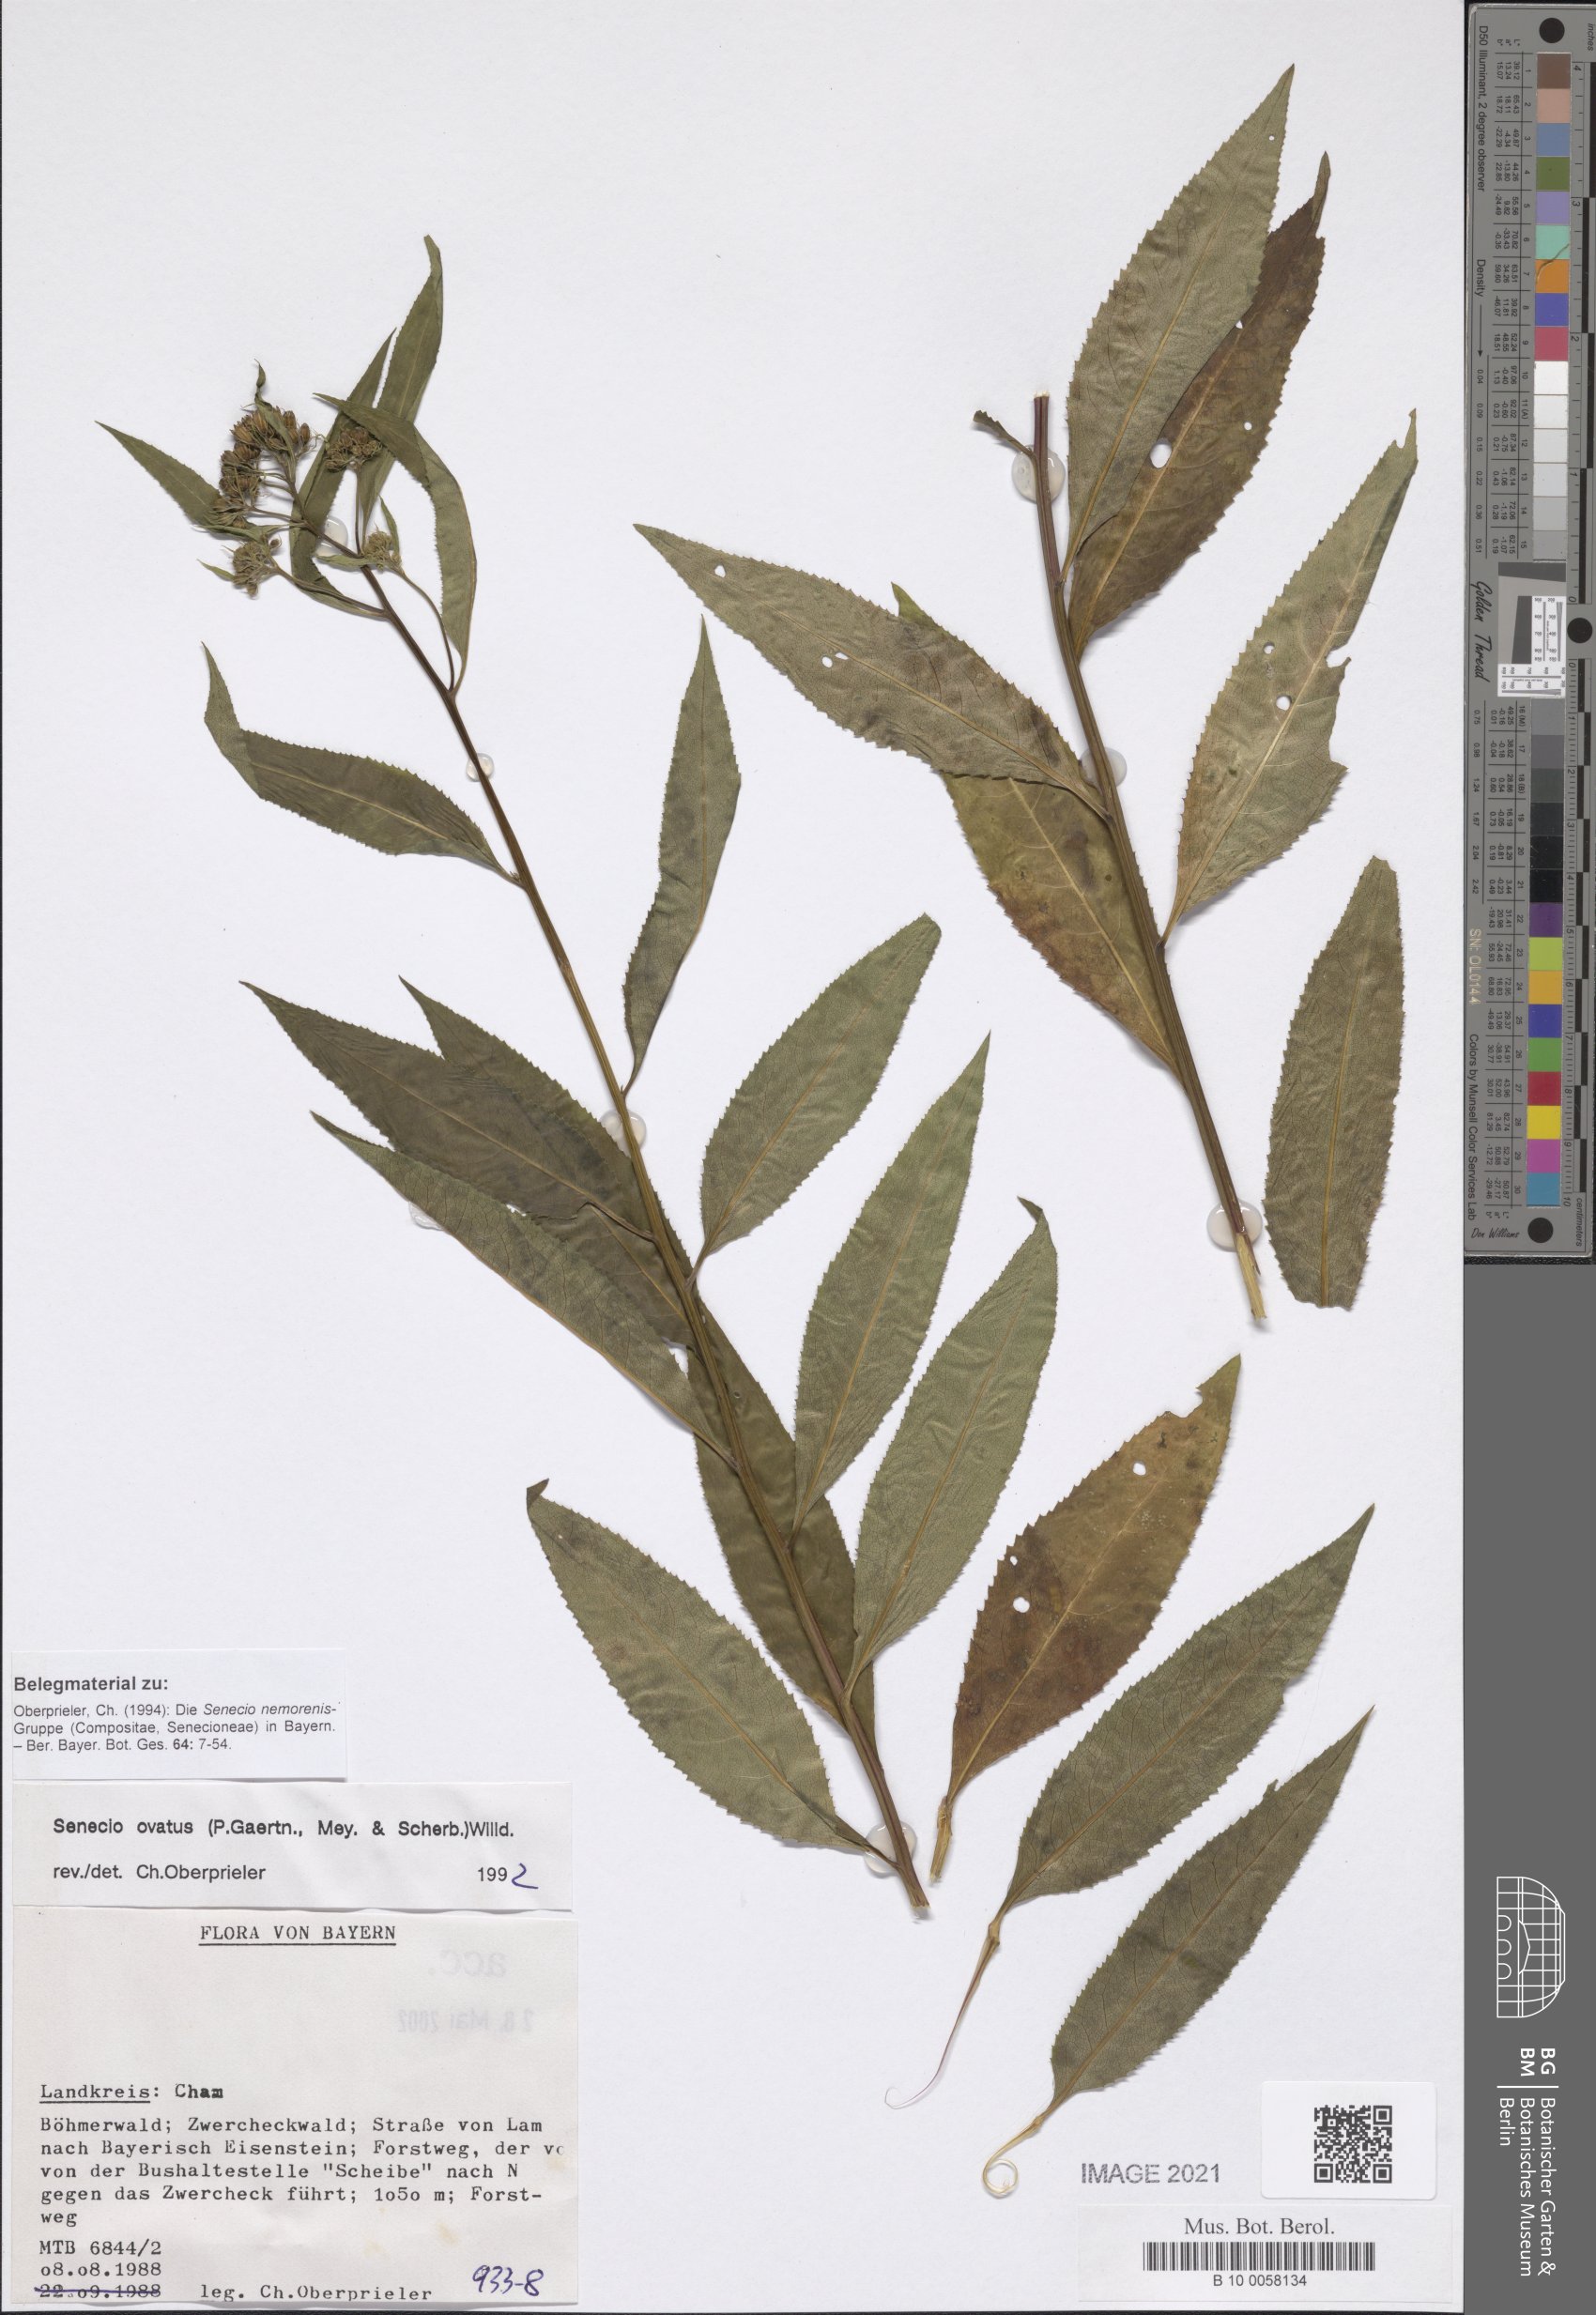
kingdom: Plantae
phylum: Tracheophyta
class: Magnoliopsida
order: Asterales
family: Asteraceae
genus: Senecio
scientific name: Senecio ovatus
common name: Wood ragwort
